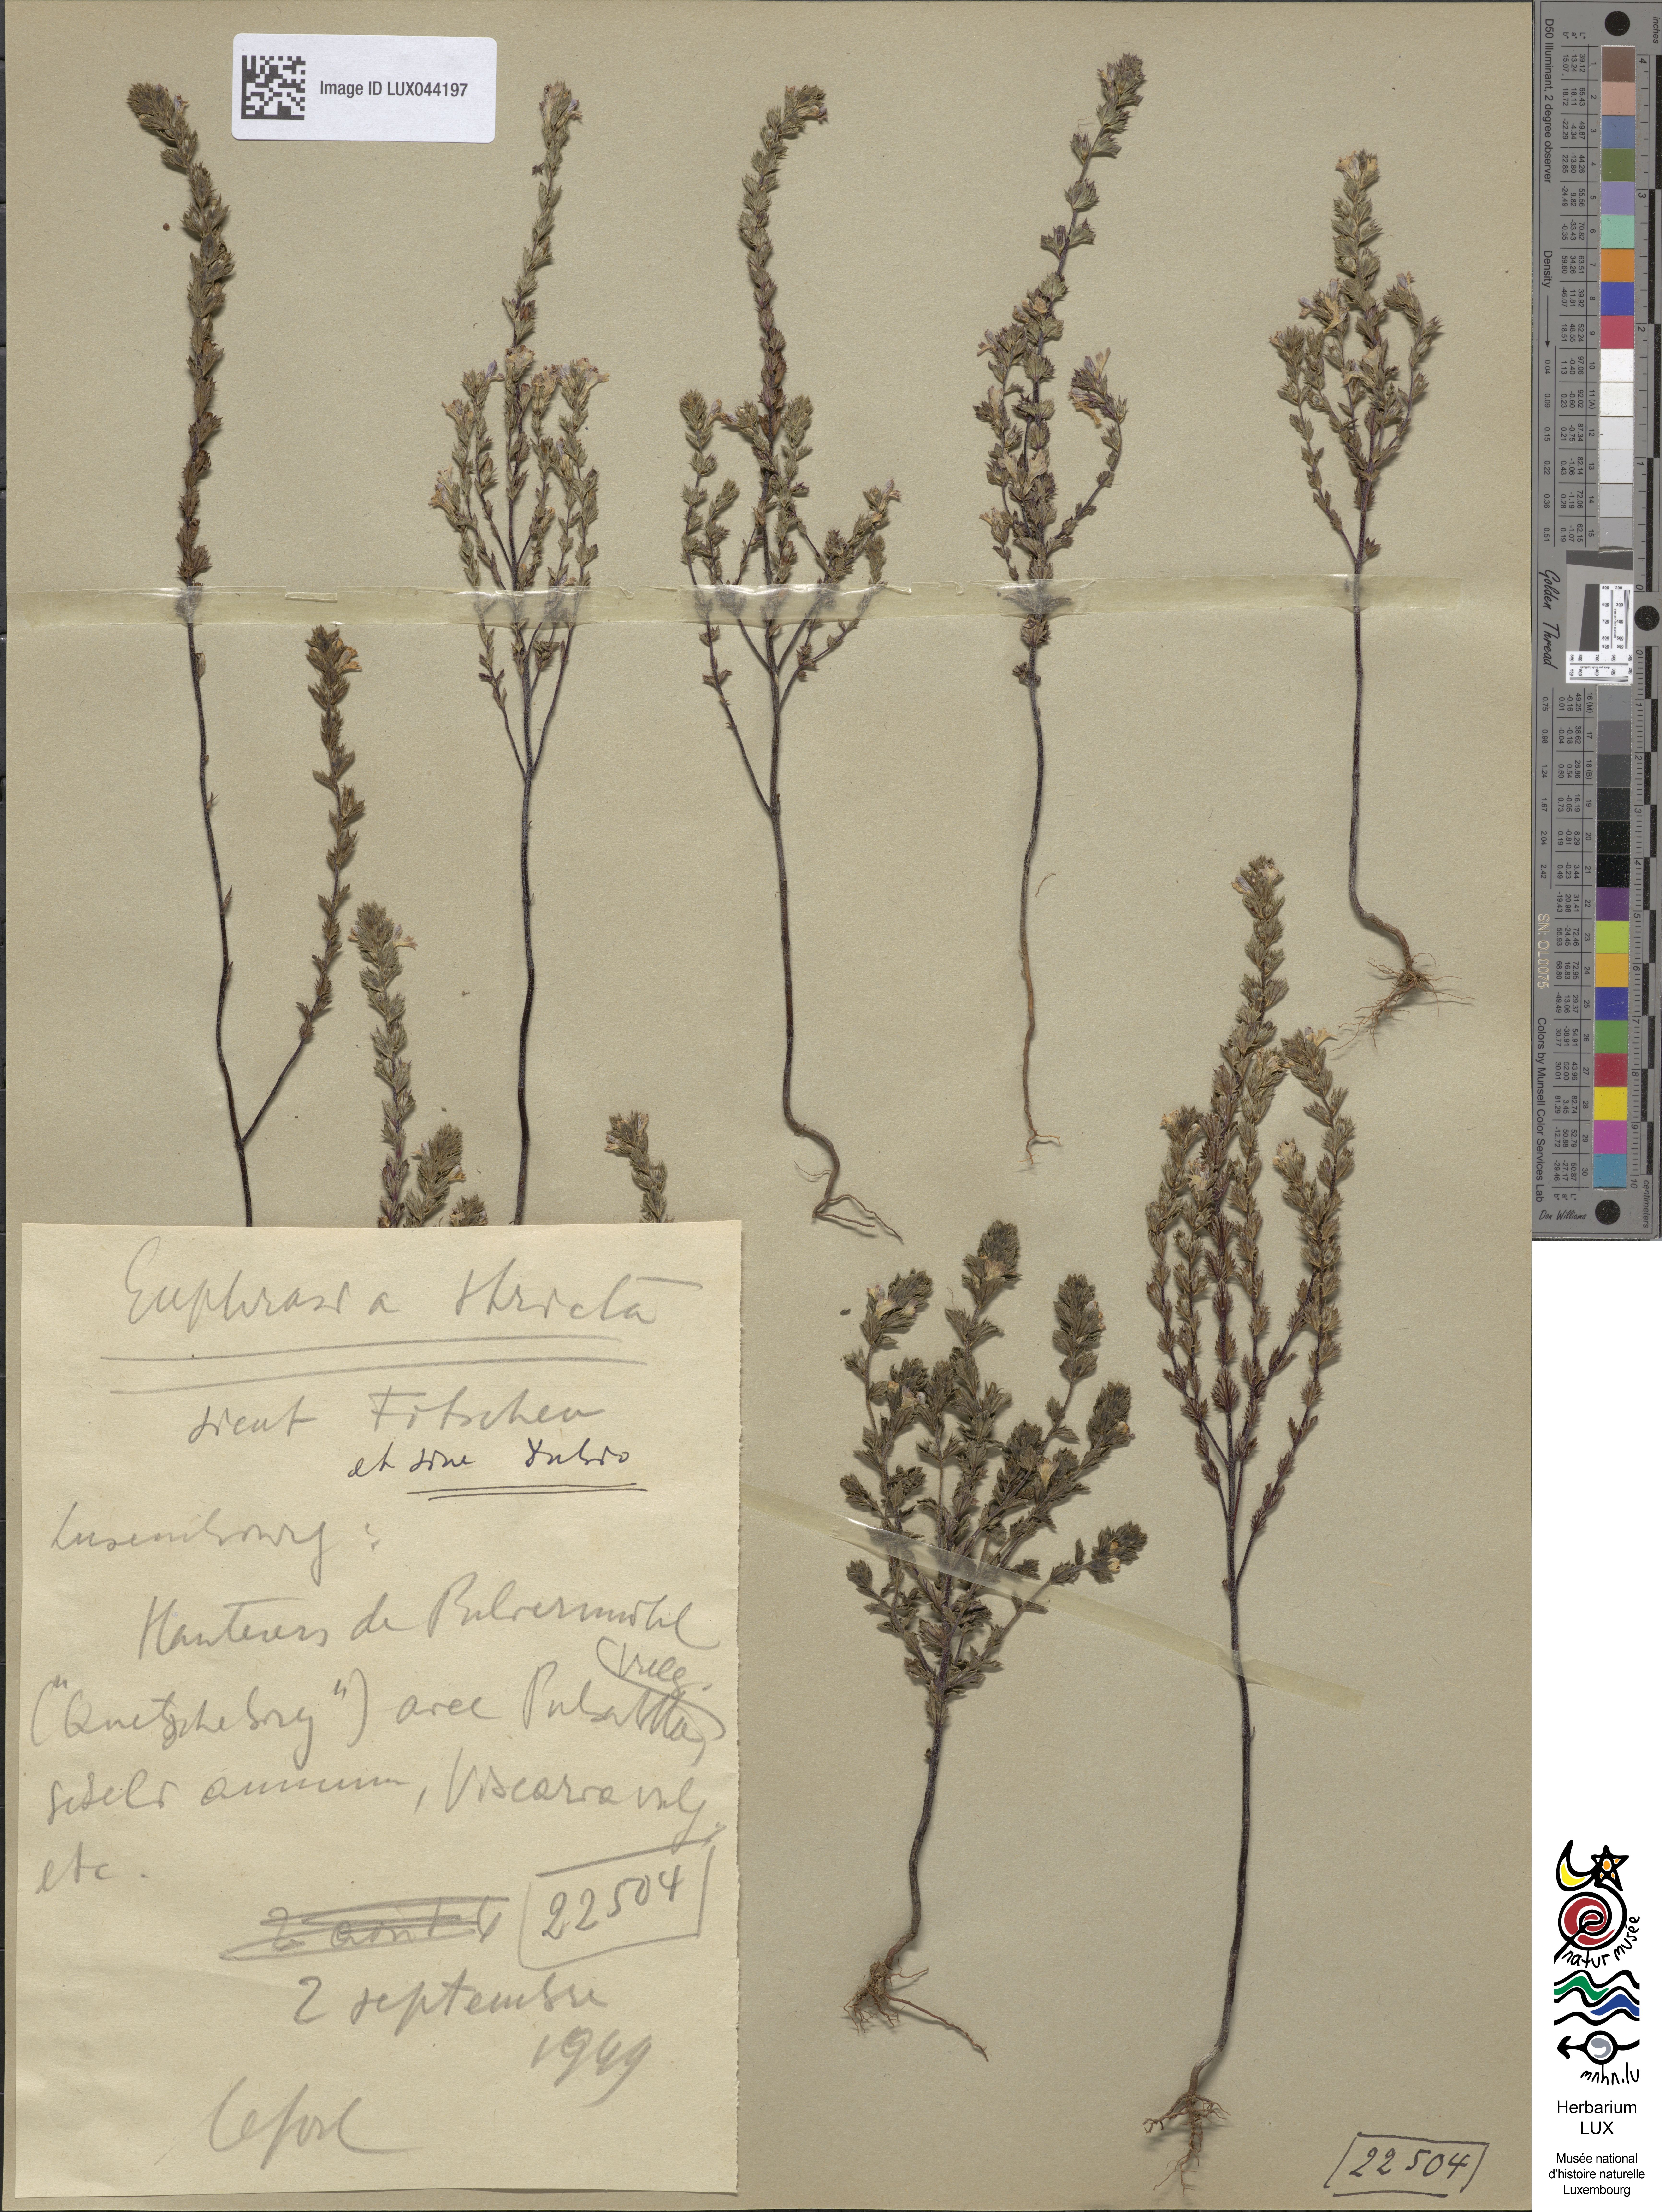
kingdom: Plantae
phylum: Tracheophyta
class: Magnoliopsida
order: Lamiales
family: Orobanchaceae
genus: Euphrasia
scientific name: Euphrasia stricta
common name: Drug eyebright
